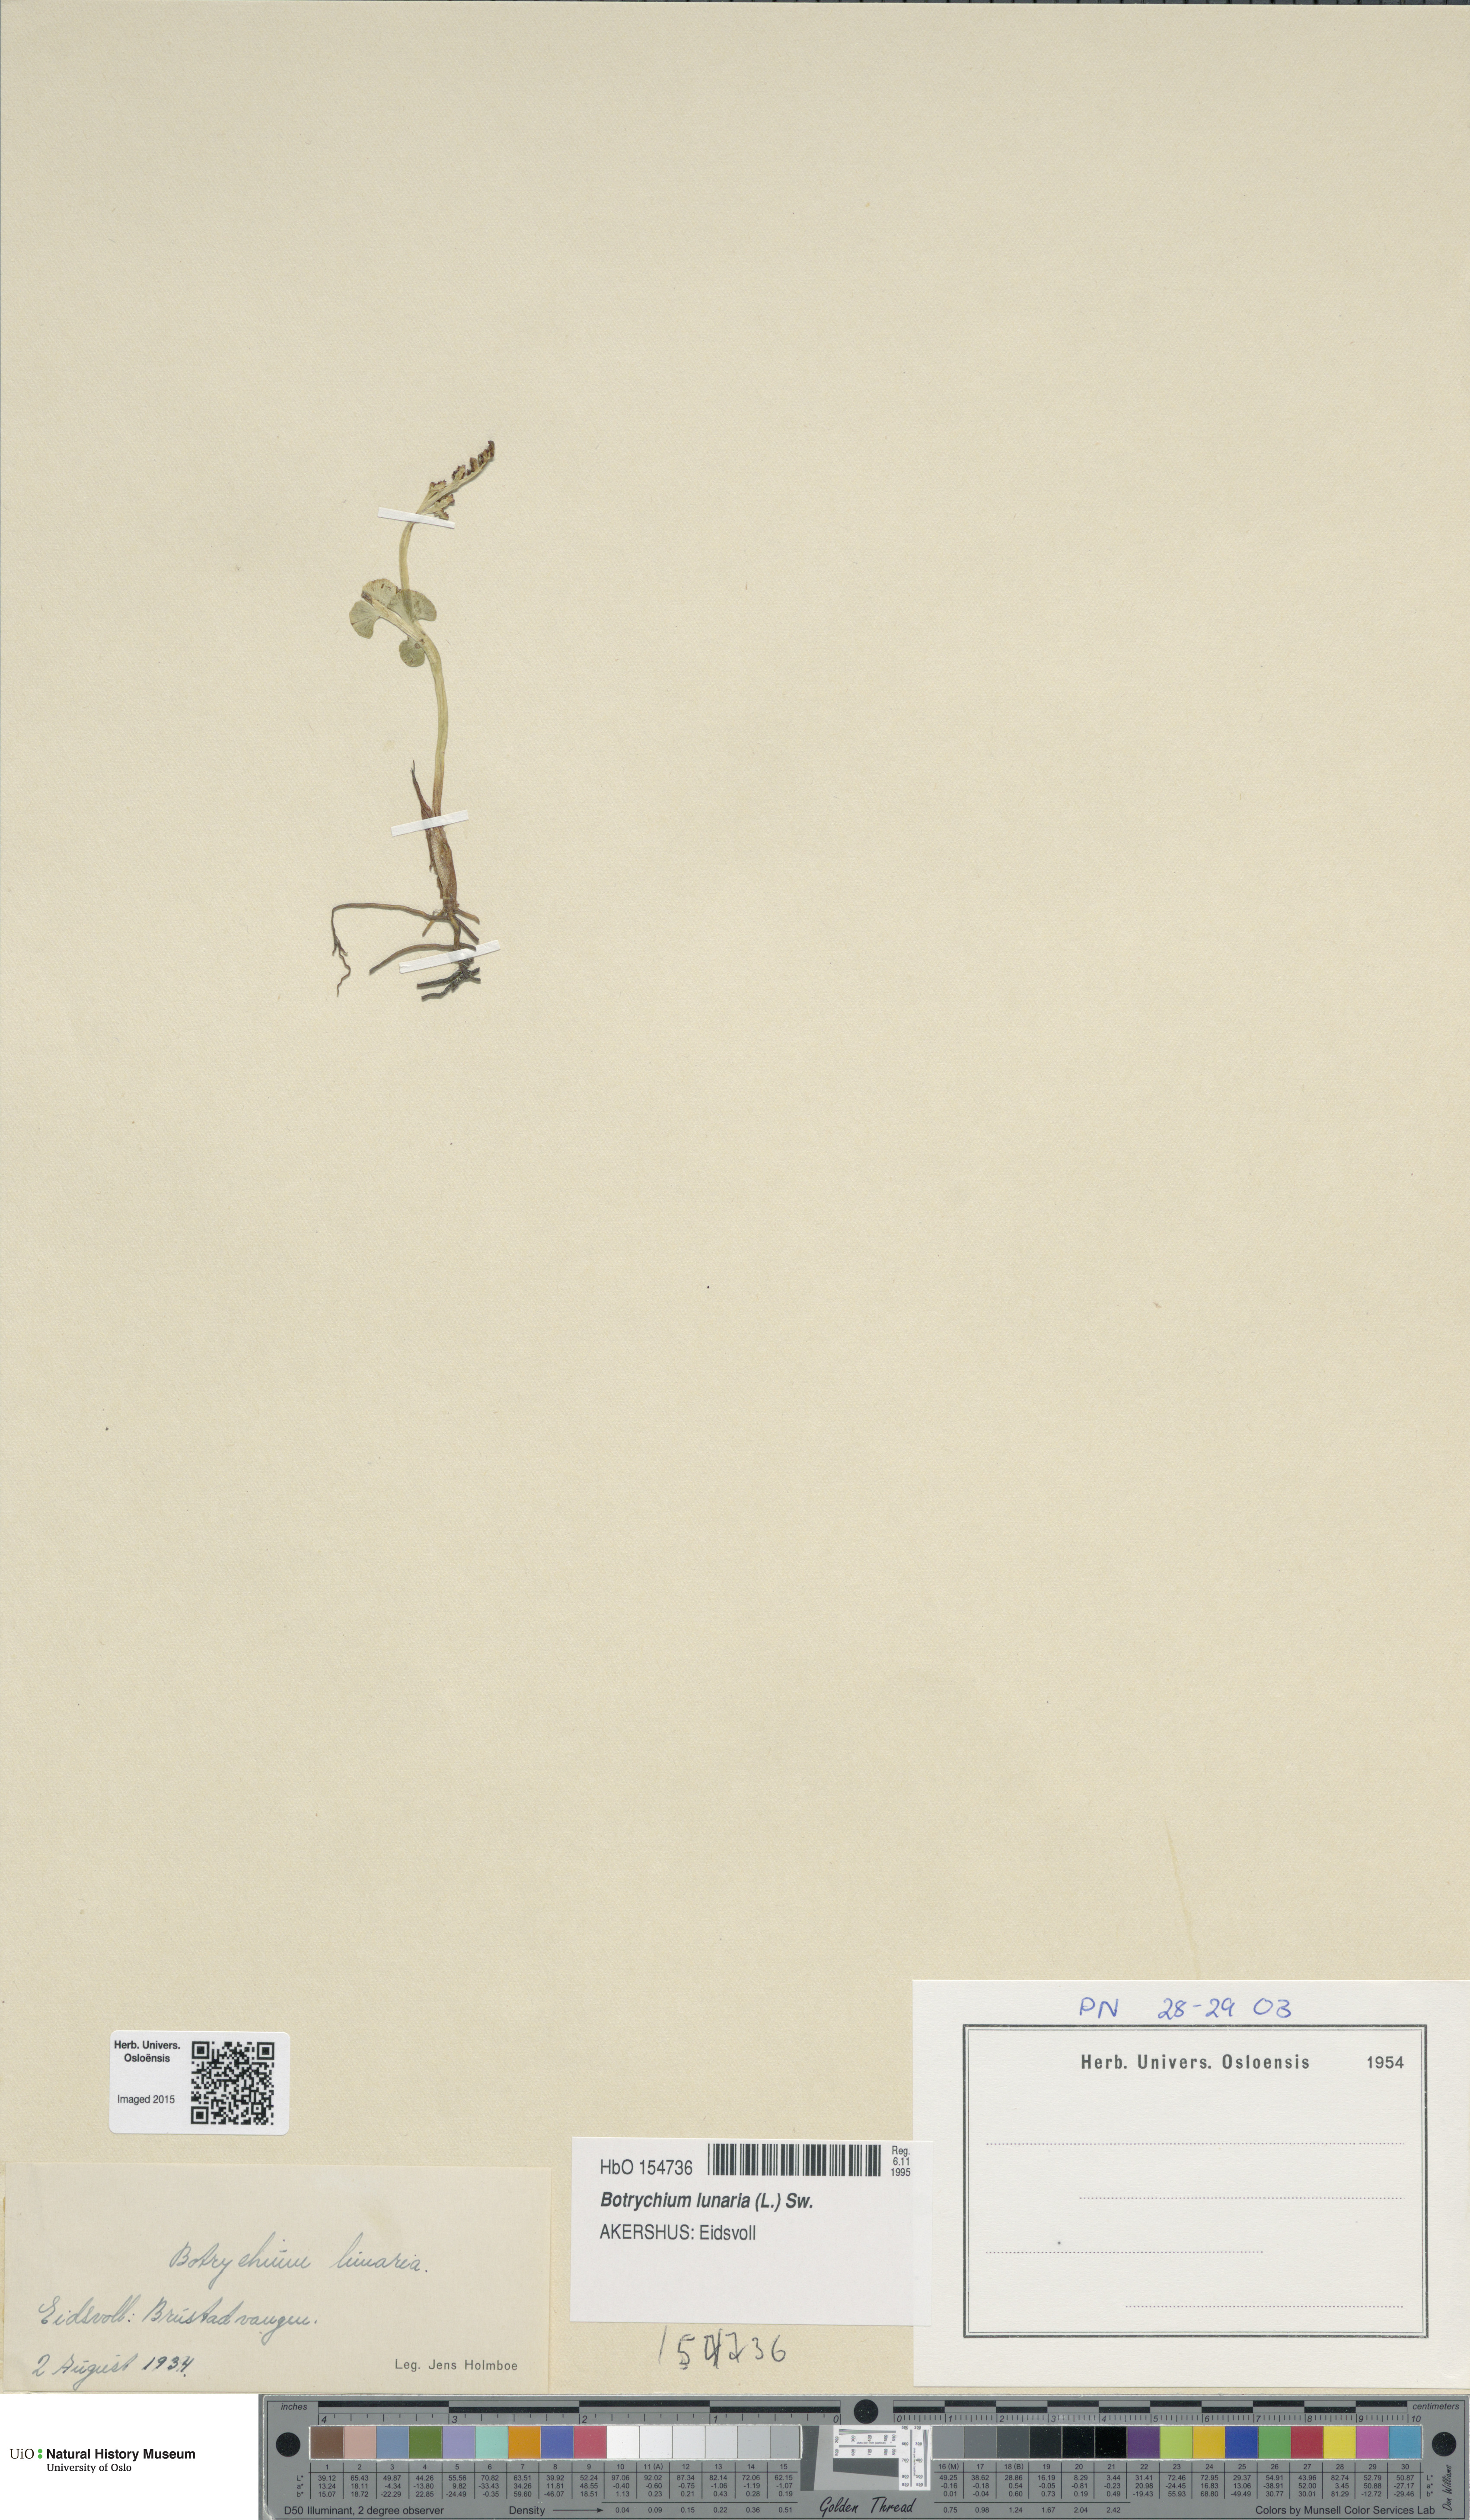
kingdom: Plantae
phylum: Tracheophyta
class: Polypodiopsida
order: Ophioglossales
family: Ophioglossaceae
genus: Botrychium
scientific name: Botrychium lunaria
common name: Moonwort
